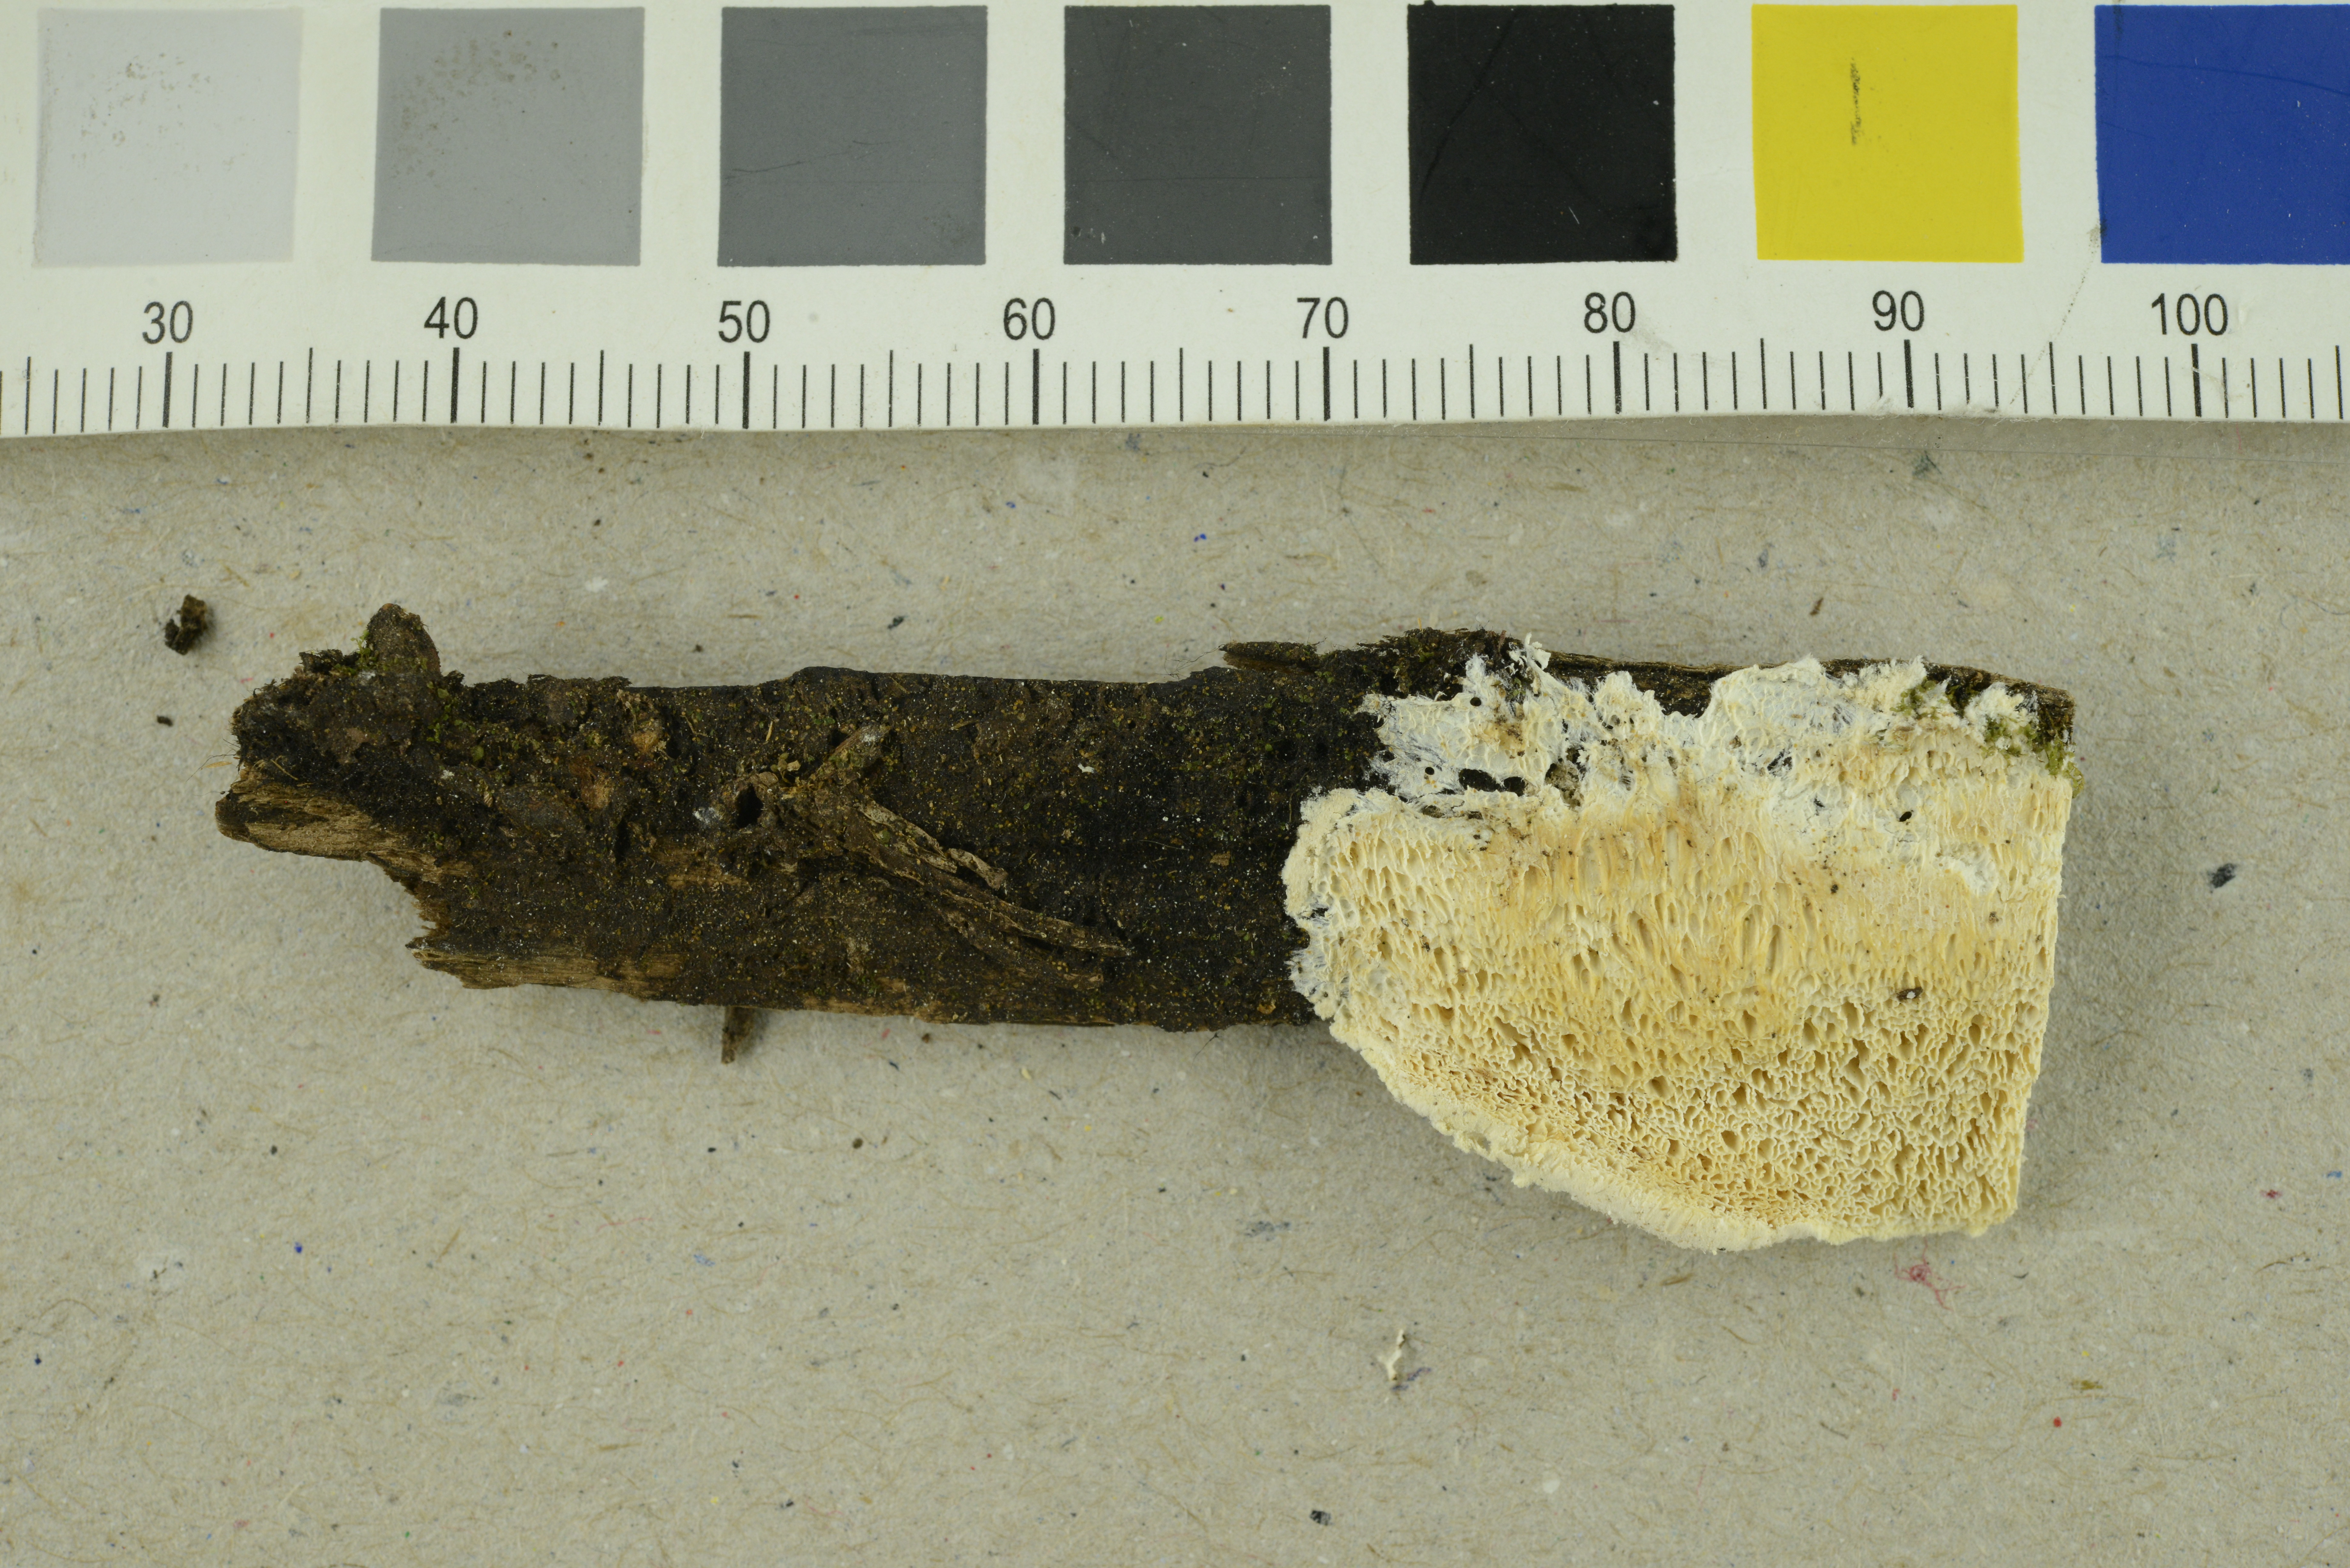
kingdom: Fungi
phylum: Basidiomycota
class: Agaricomycetes
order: Polyporales
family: Fomitopsidaceae
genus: Antrodia
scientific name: Antrodia gossypium
